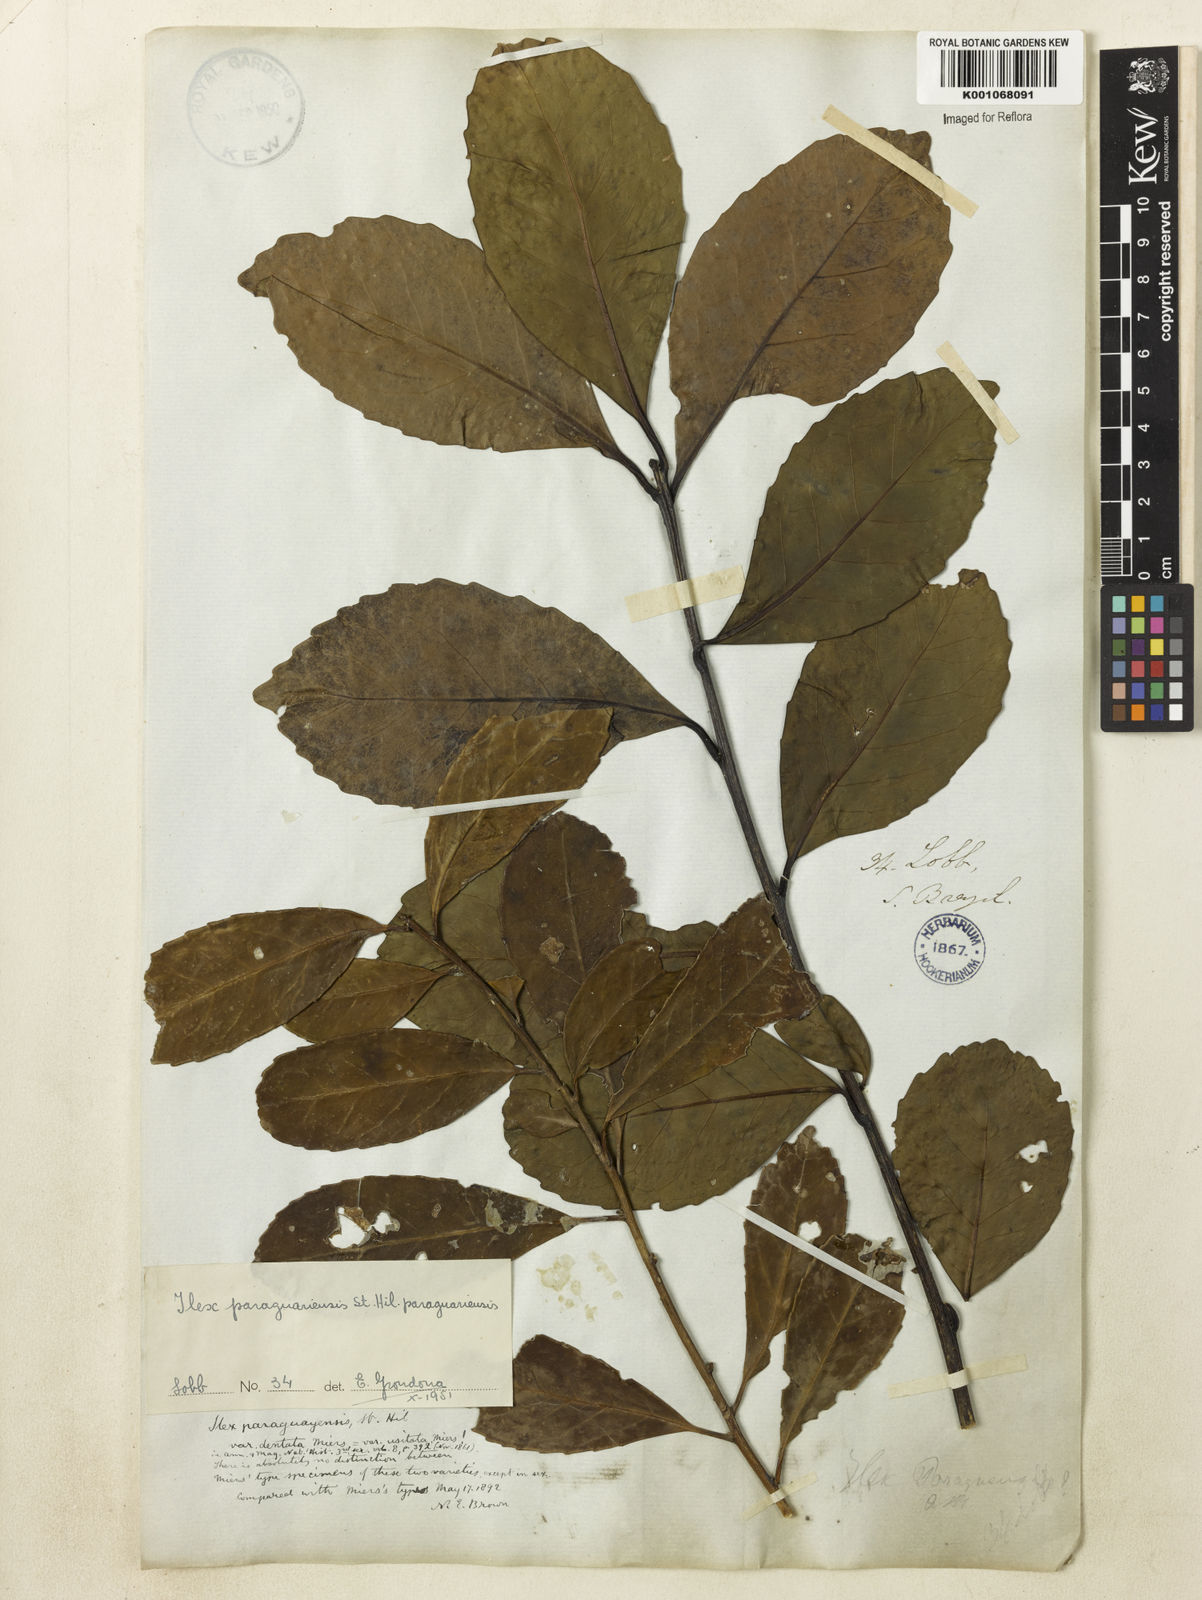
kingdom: Plantae
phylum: Tracheophyta
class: Magnoliopsida
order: Aquifoliales
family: Aquifoliaceae
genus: Ilex
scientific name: Ilex paraguariensis
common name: Paraguay tea
